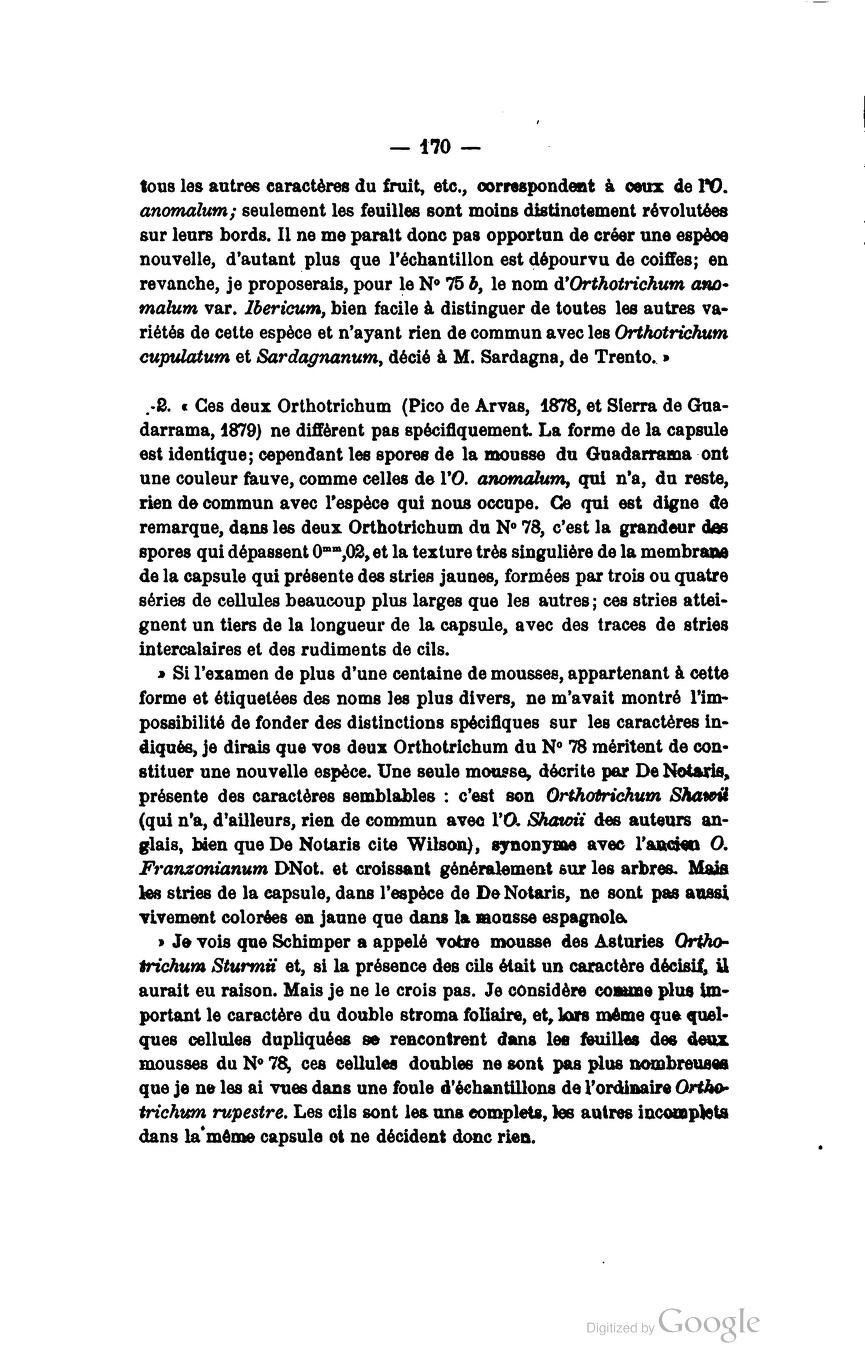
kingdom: Plantae
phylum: Bryophyta
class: Bryopsida
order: Orthotrichales
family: Orthotrichaceae
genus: Lewinskya
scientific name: Lewinskya rupestris
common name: Rock bristle-moss
